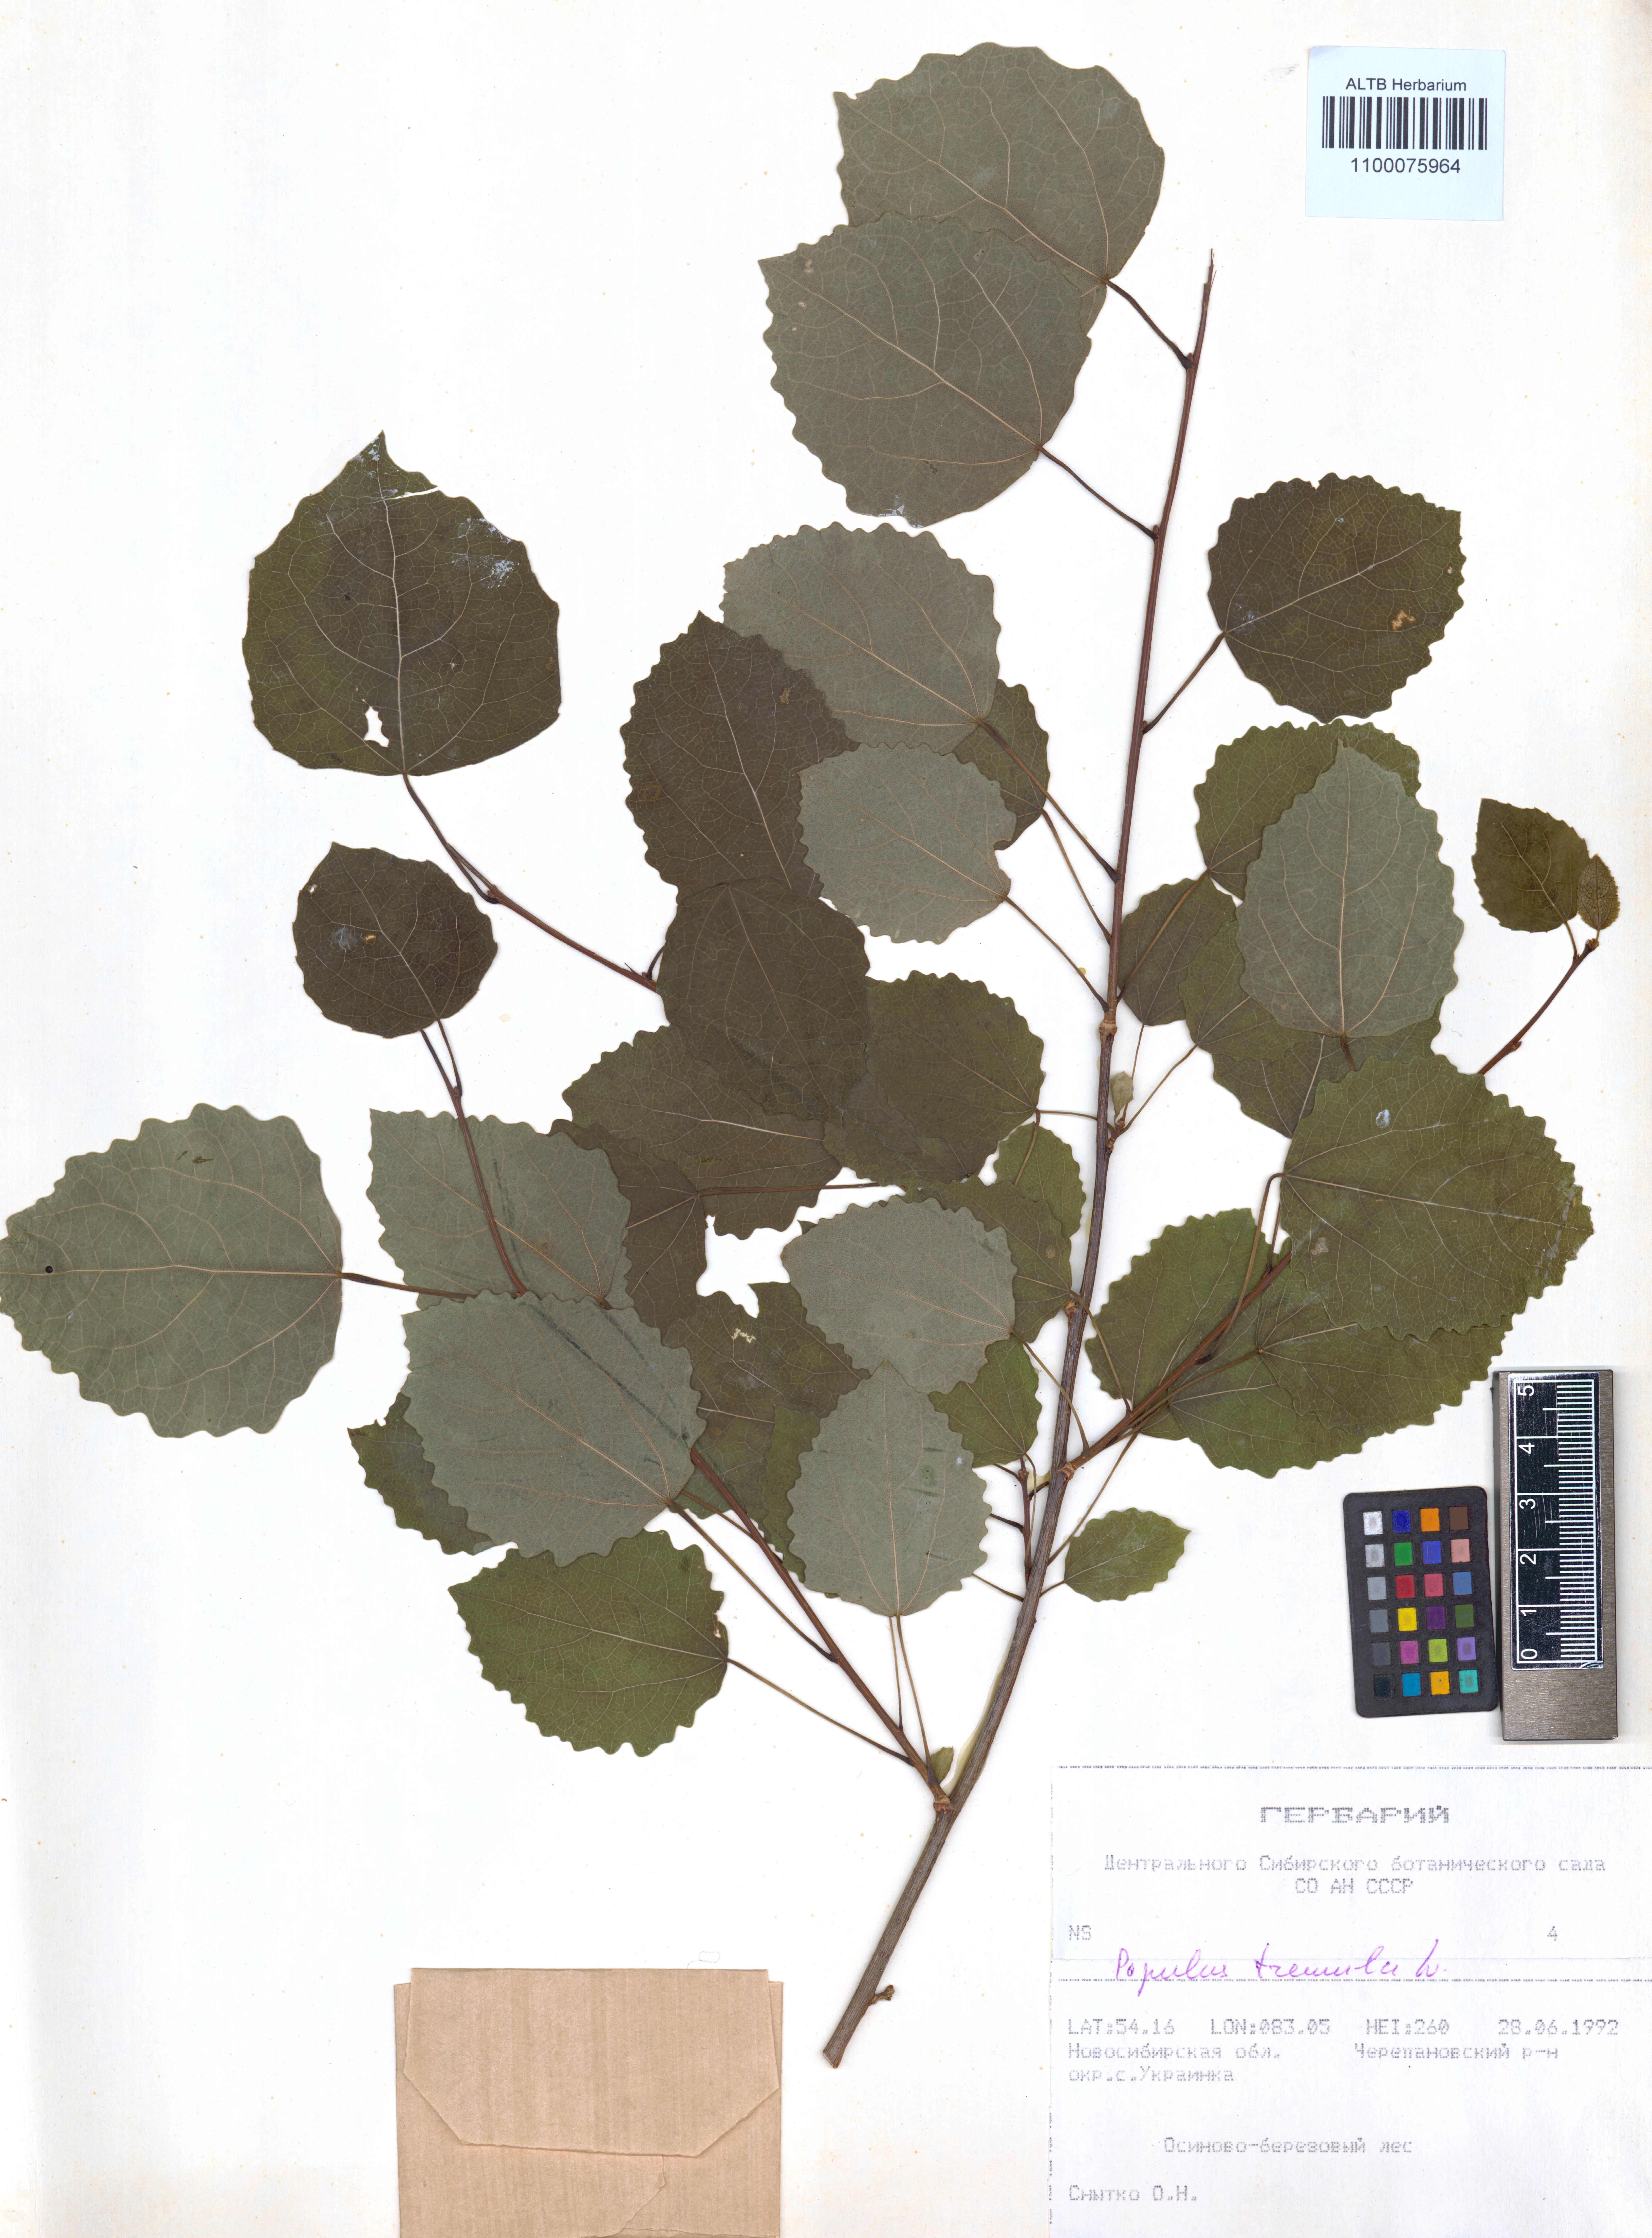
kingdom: Plantae
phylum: Tracheophyta
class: Magnoliopsida
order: Malpighiales
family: Salicaceae
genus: Populus
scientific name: Populus tremula
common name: European aspen
